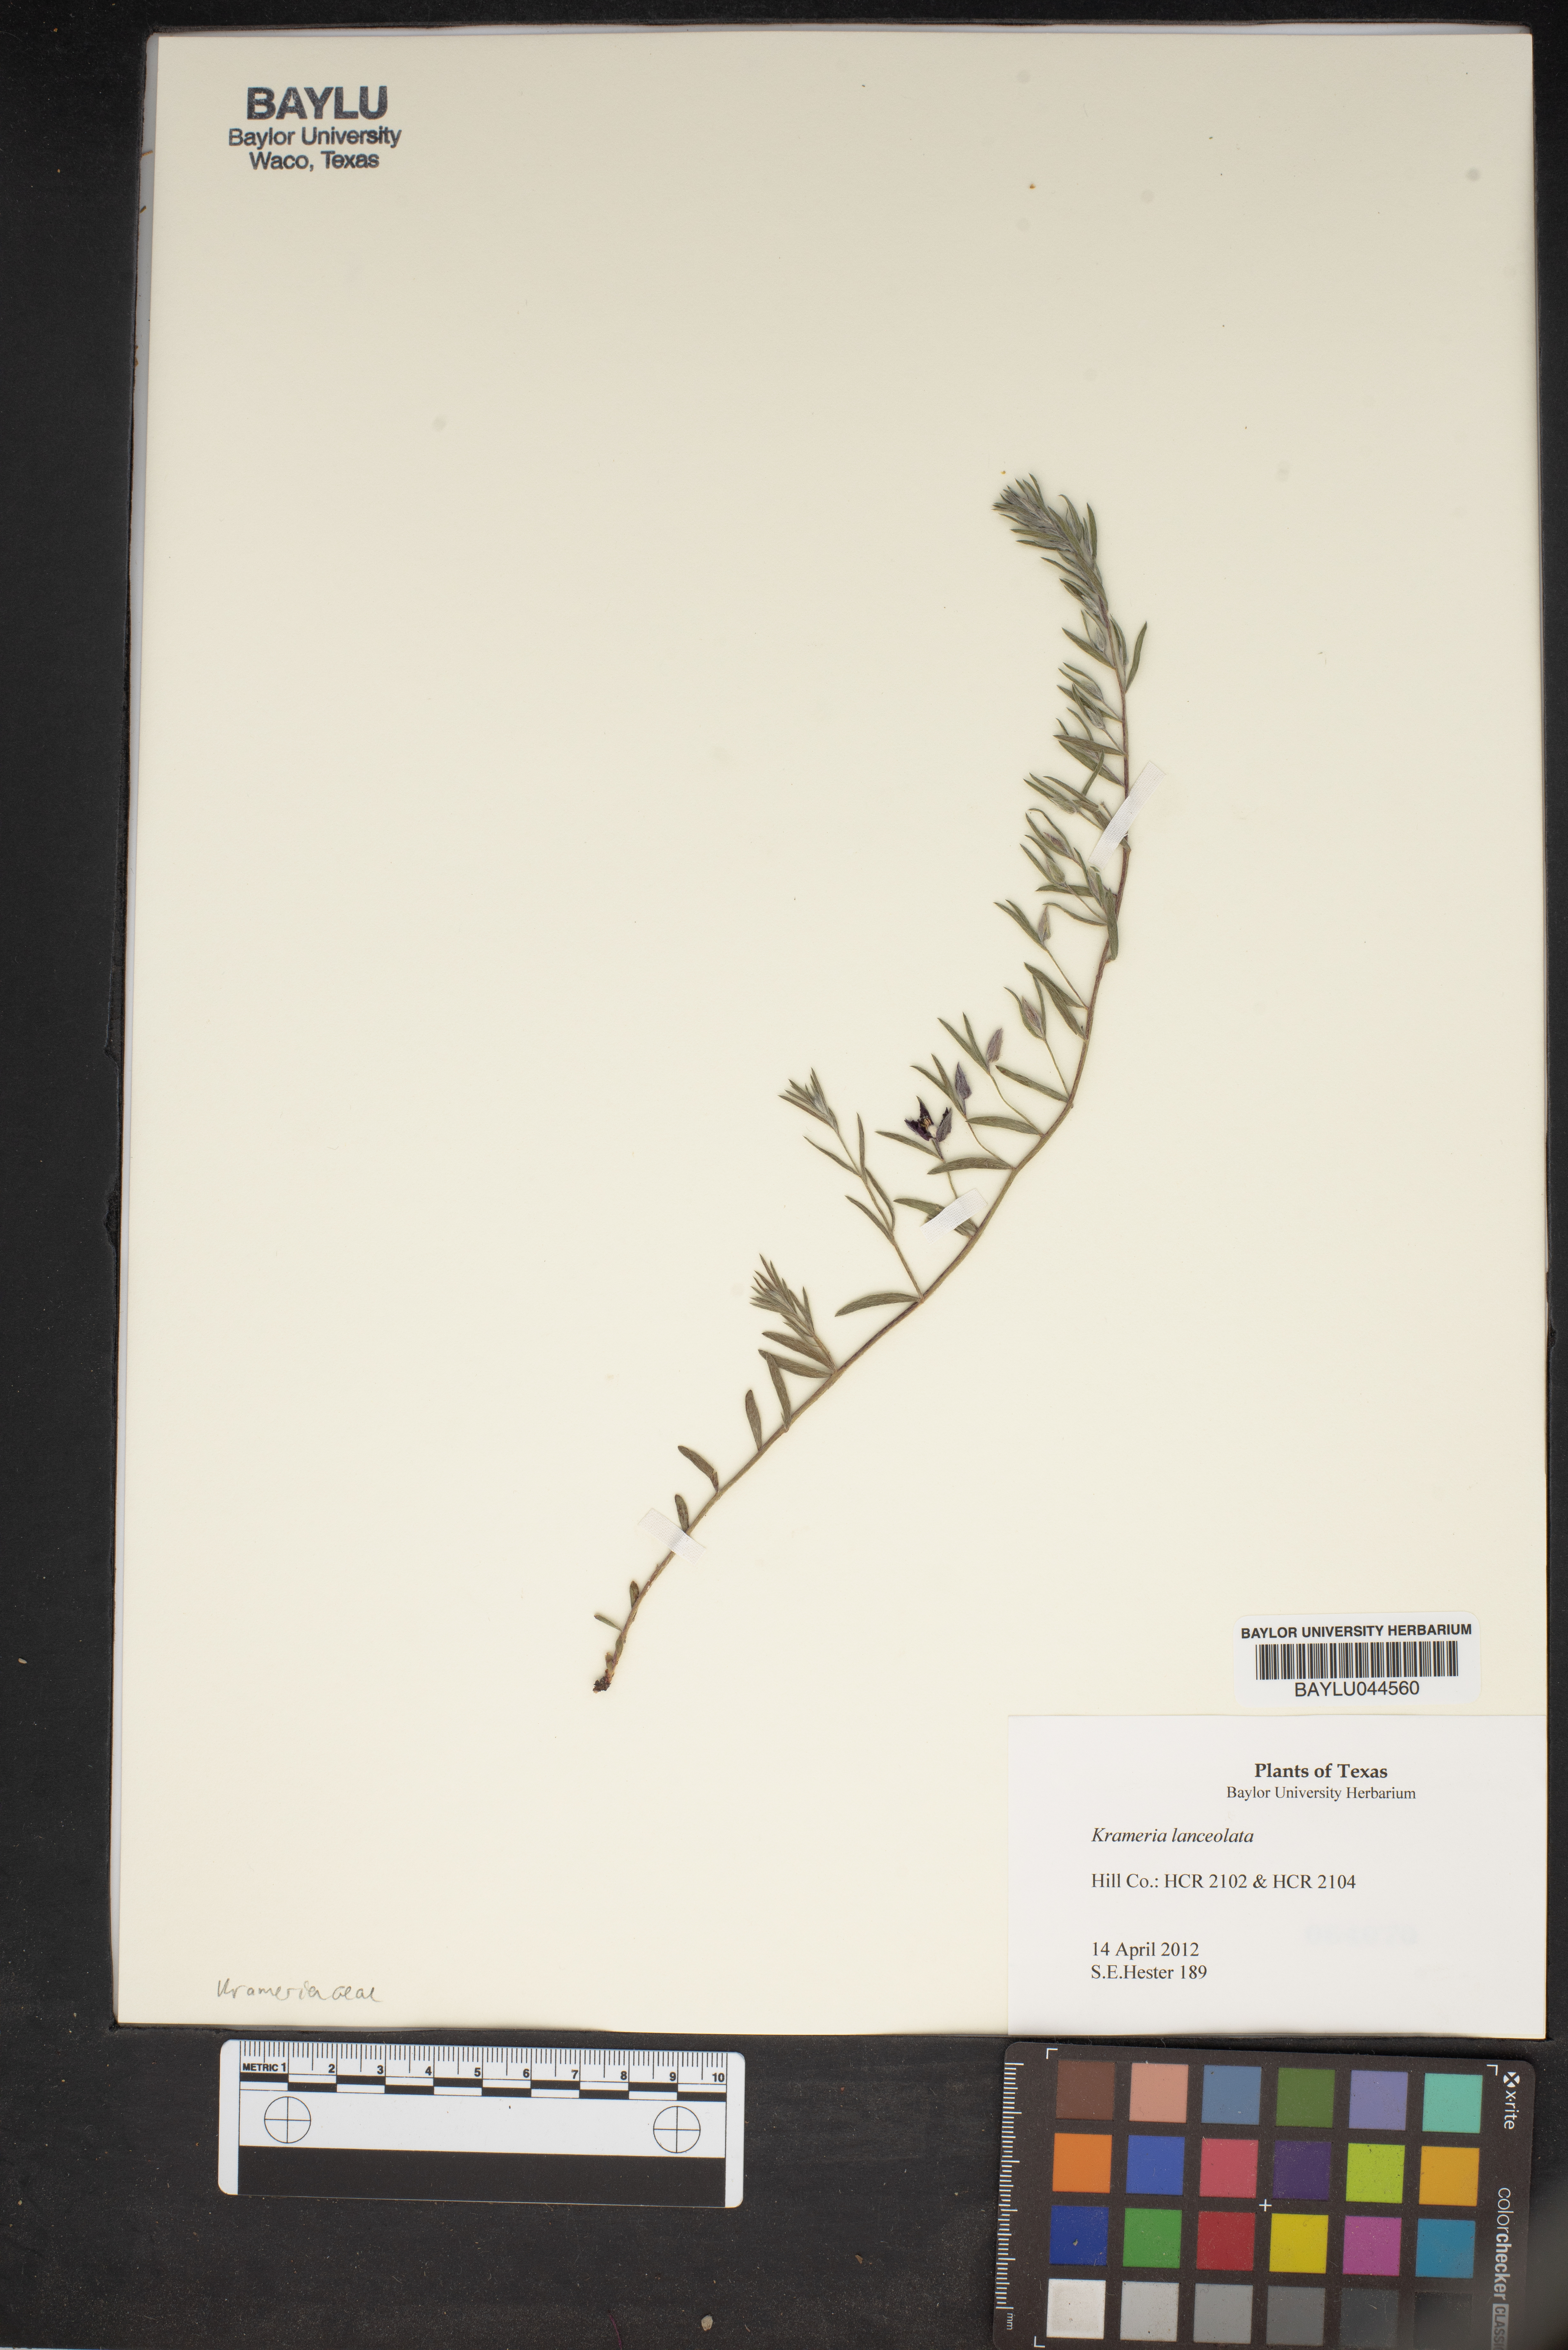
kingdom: Plantae
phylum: Tracheophyta
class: Magnoliopsida
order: Zygophyllales
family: Krameriaceae
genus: Krameria
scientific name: Krameria lanceolata
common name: Ratany
